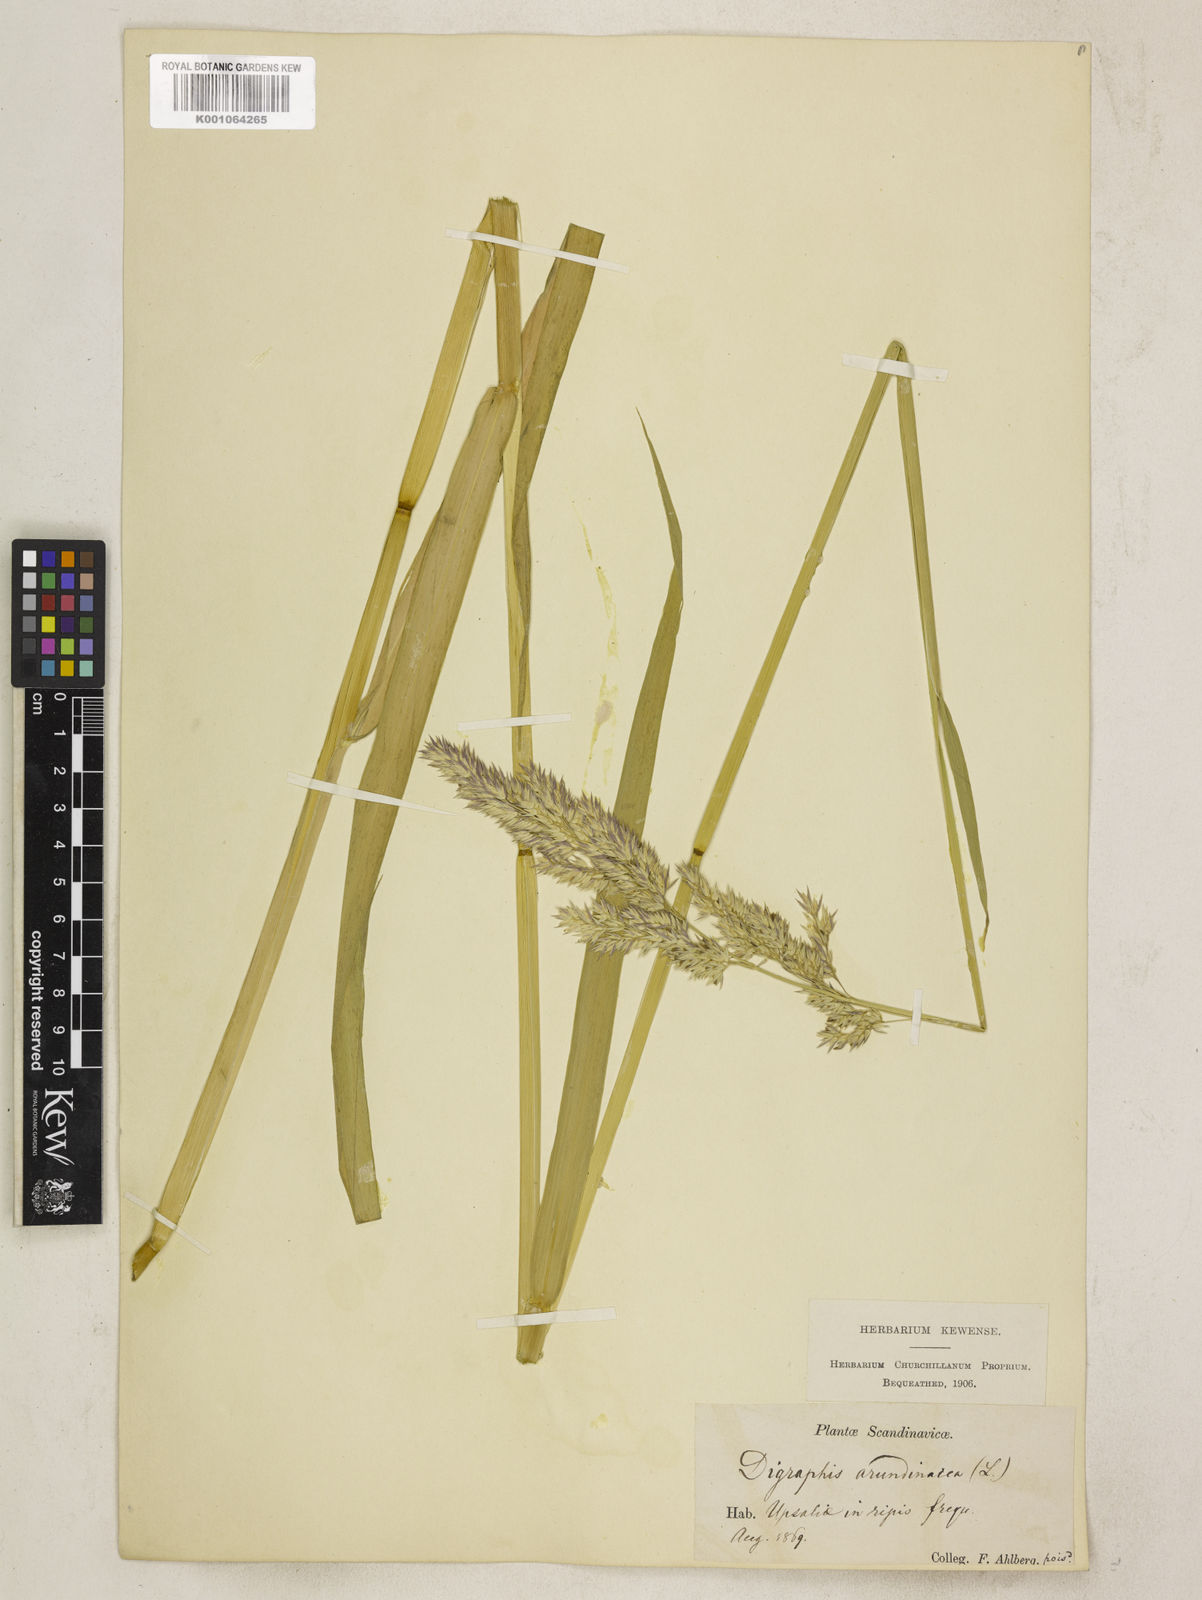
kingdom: Plantae
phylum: Tracheophyta
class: Liliopsida
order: Poales
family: Poaceae
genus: Phalaris
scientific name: Phalaris arundinacea
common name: Reed canary-grass
